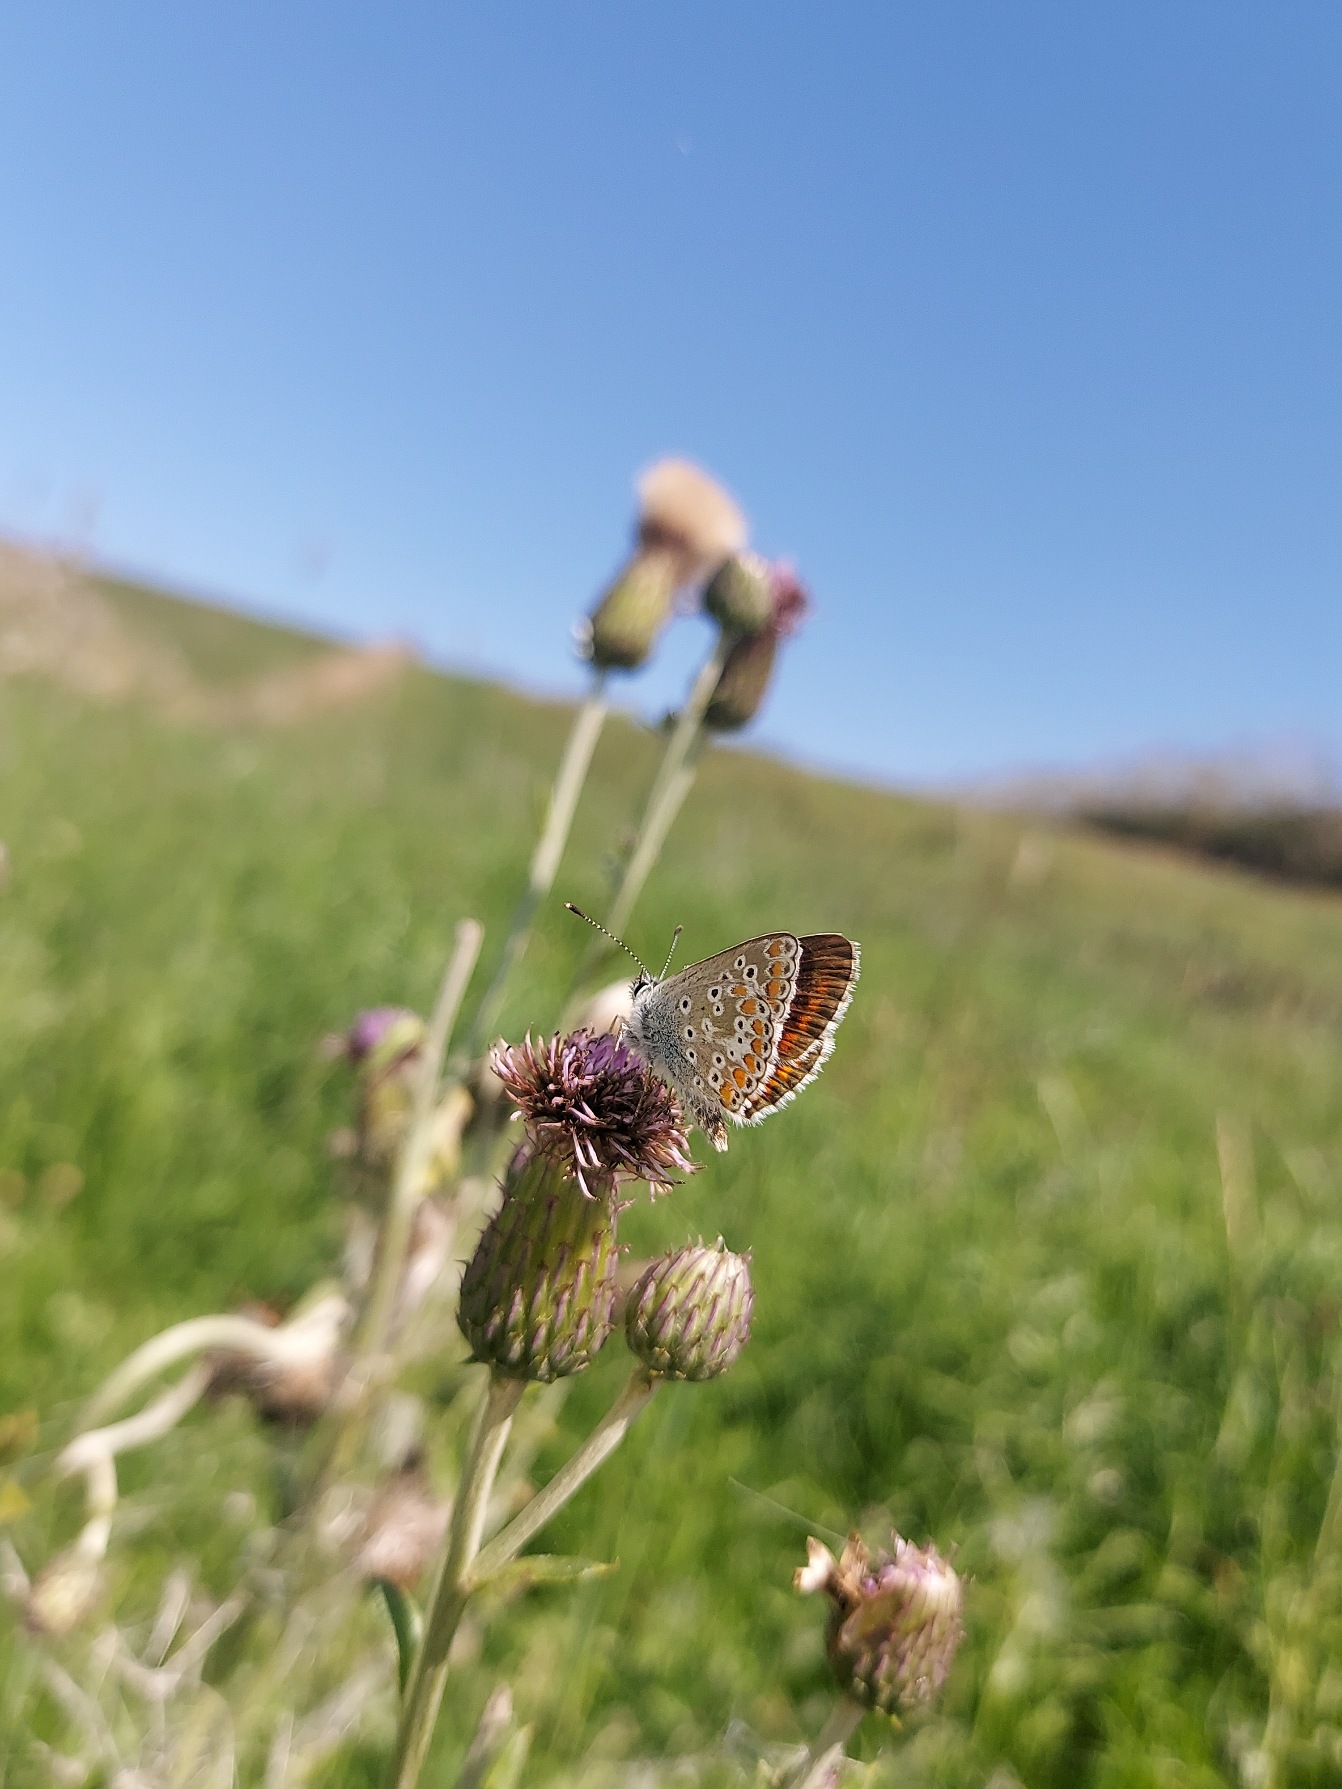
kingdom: Animalia
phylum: Arthropoda
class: Insecta
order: Lepidoptera
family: Lycaenidae
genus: Aricia
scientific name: Aricia agestis
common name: Rødplettet blåfugl
